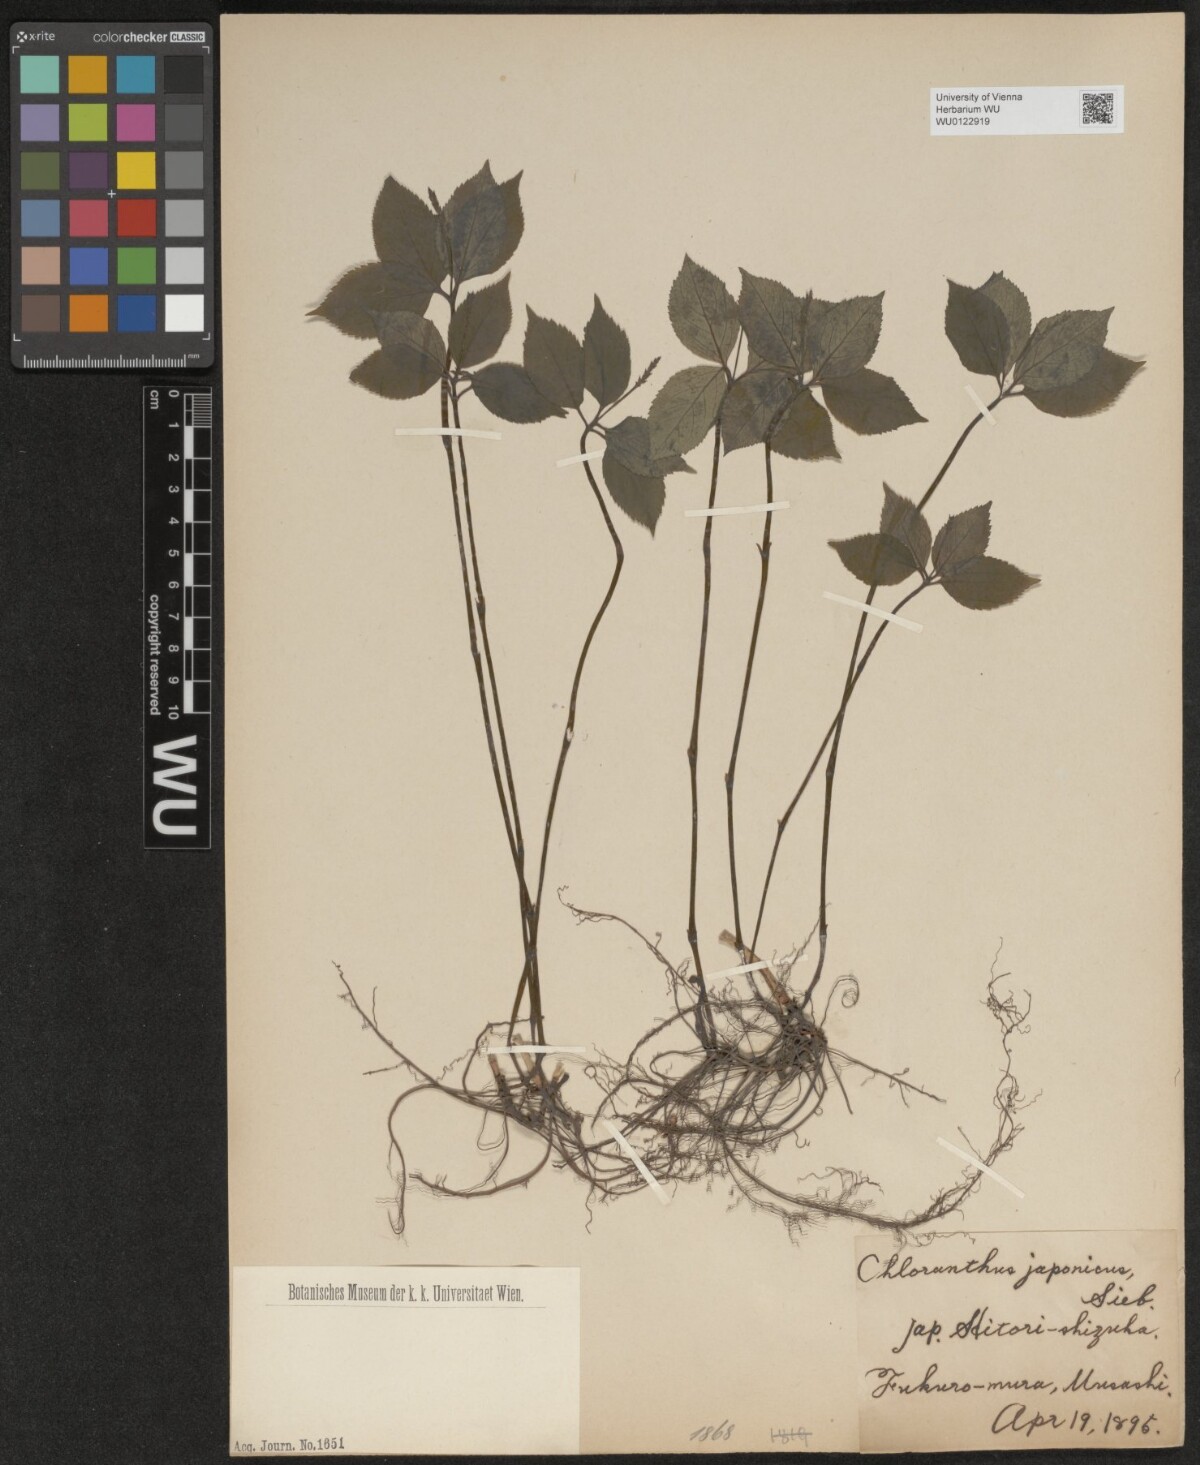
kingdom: Plantae
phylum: Tracheophyta
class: Magnoliopsida
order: Chloranthales
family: Chloranthaceae
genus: Chloranthus
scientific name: Chloranthus japonicus
